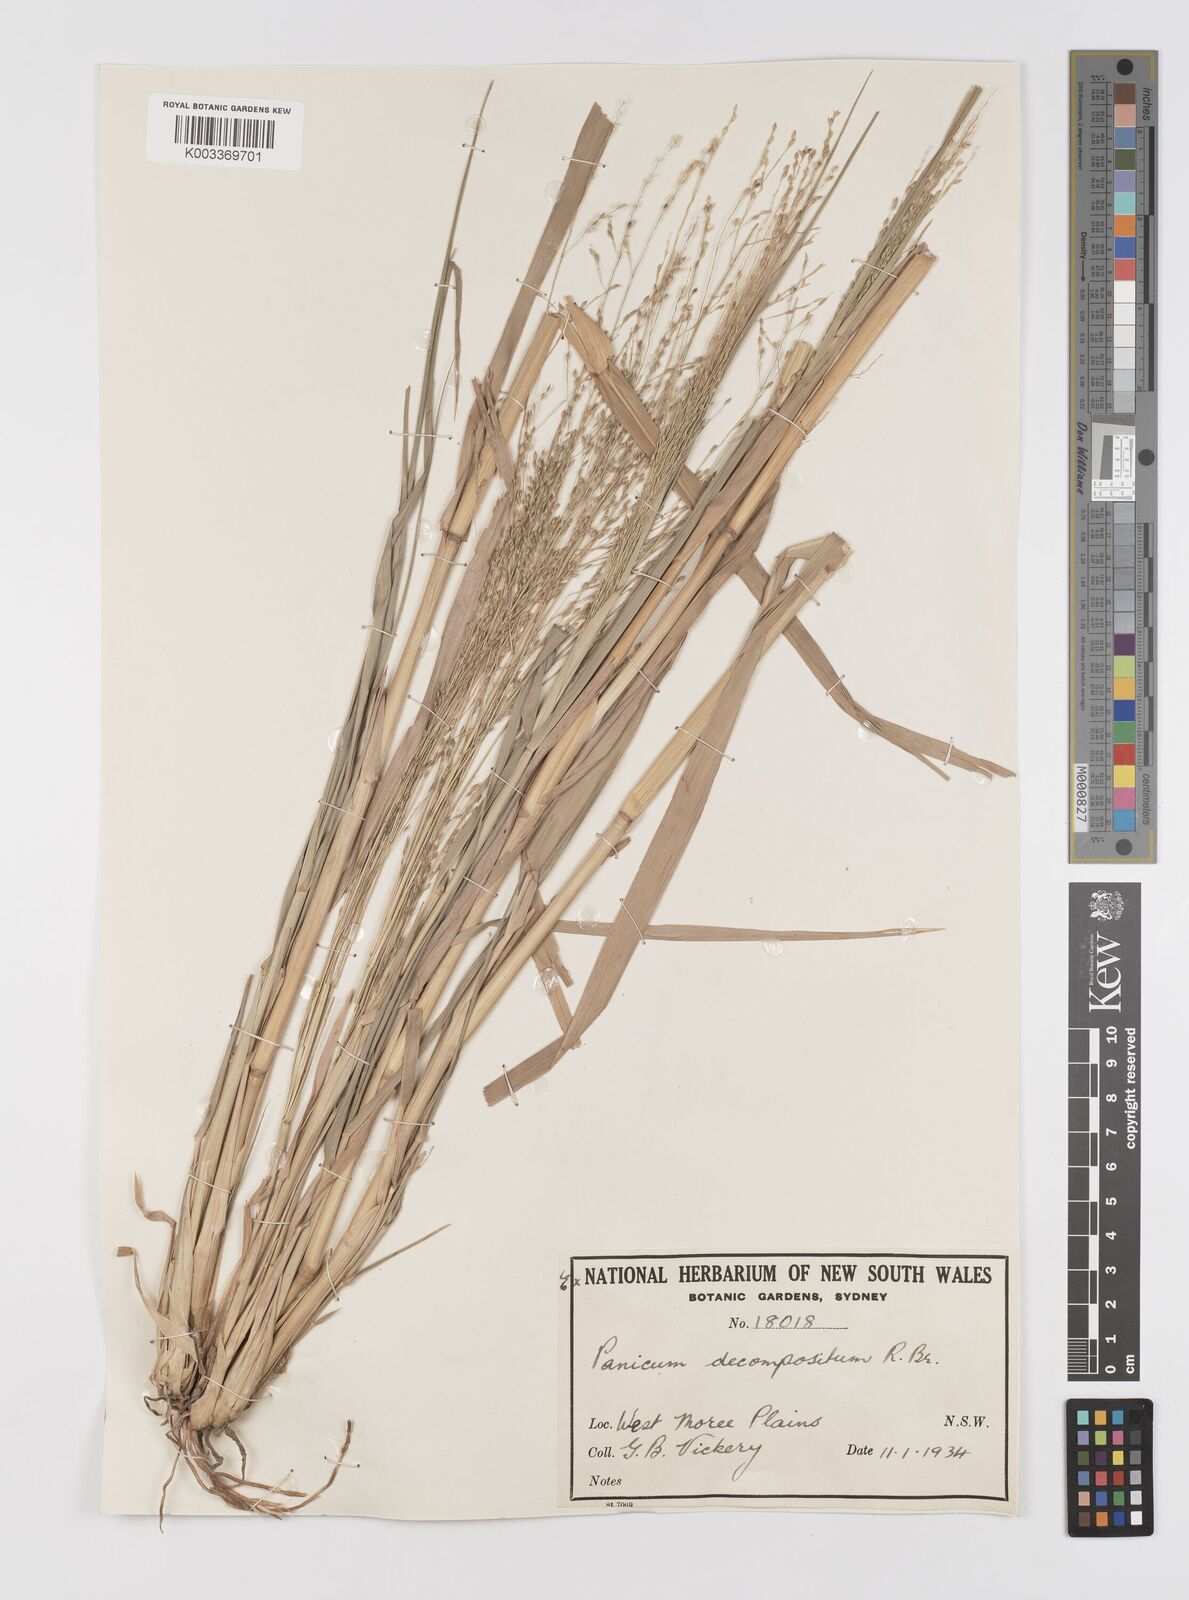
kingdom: Plantae
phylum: Tracheophyta
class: Liliopsida
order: Poales
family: Poaceae
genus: Panicum
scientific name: Panicum decompositum
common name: Australian millet
